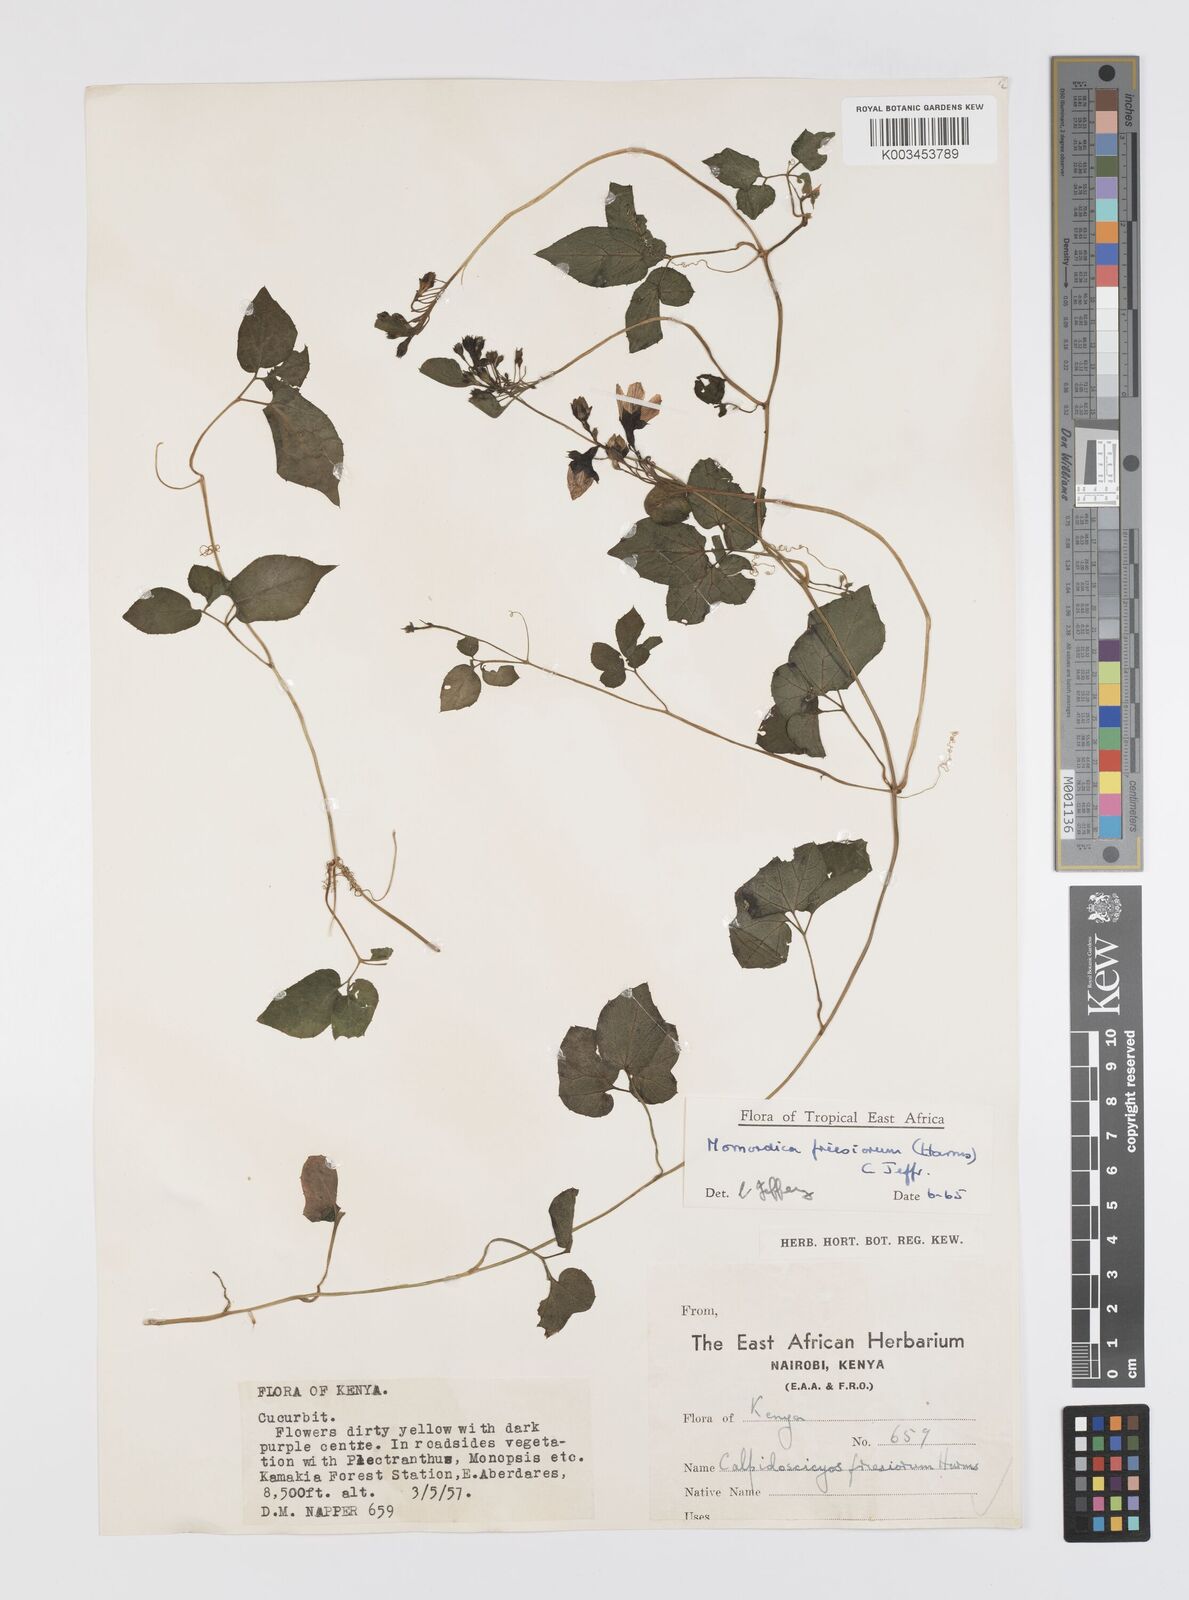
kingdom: Plantae
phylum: Tracheophyta
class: Magnoliopsida
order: Cucurbitales
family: Cucurbitaceae
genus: Momordica
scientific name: Momordica friesiorum
